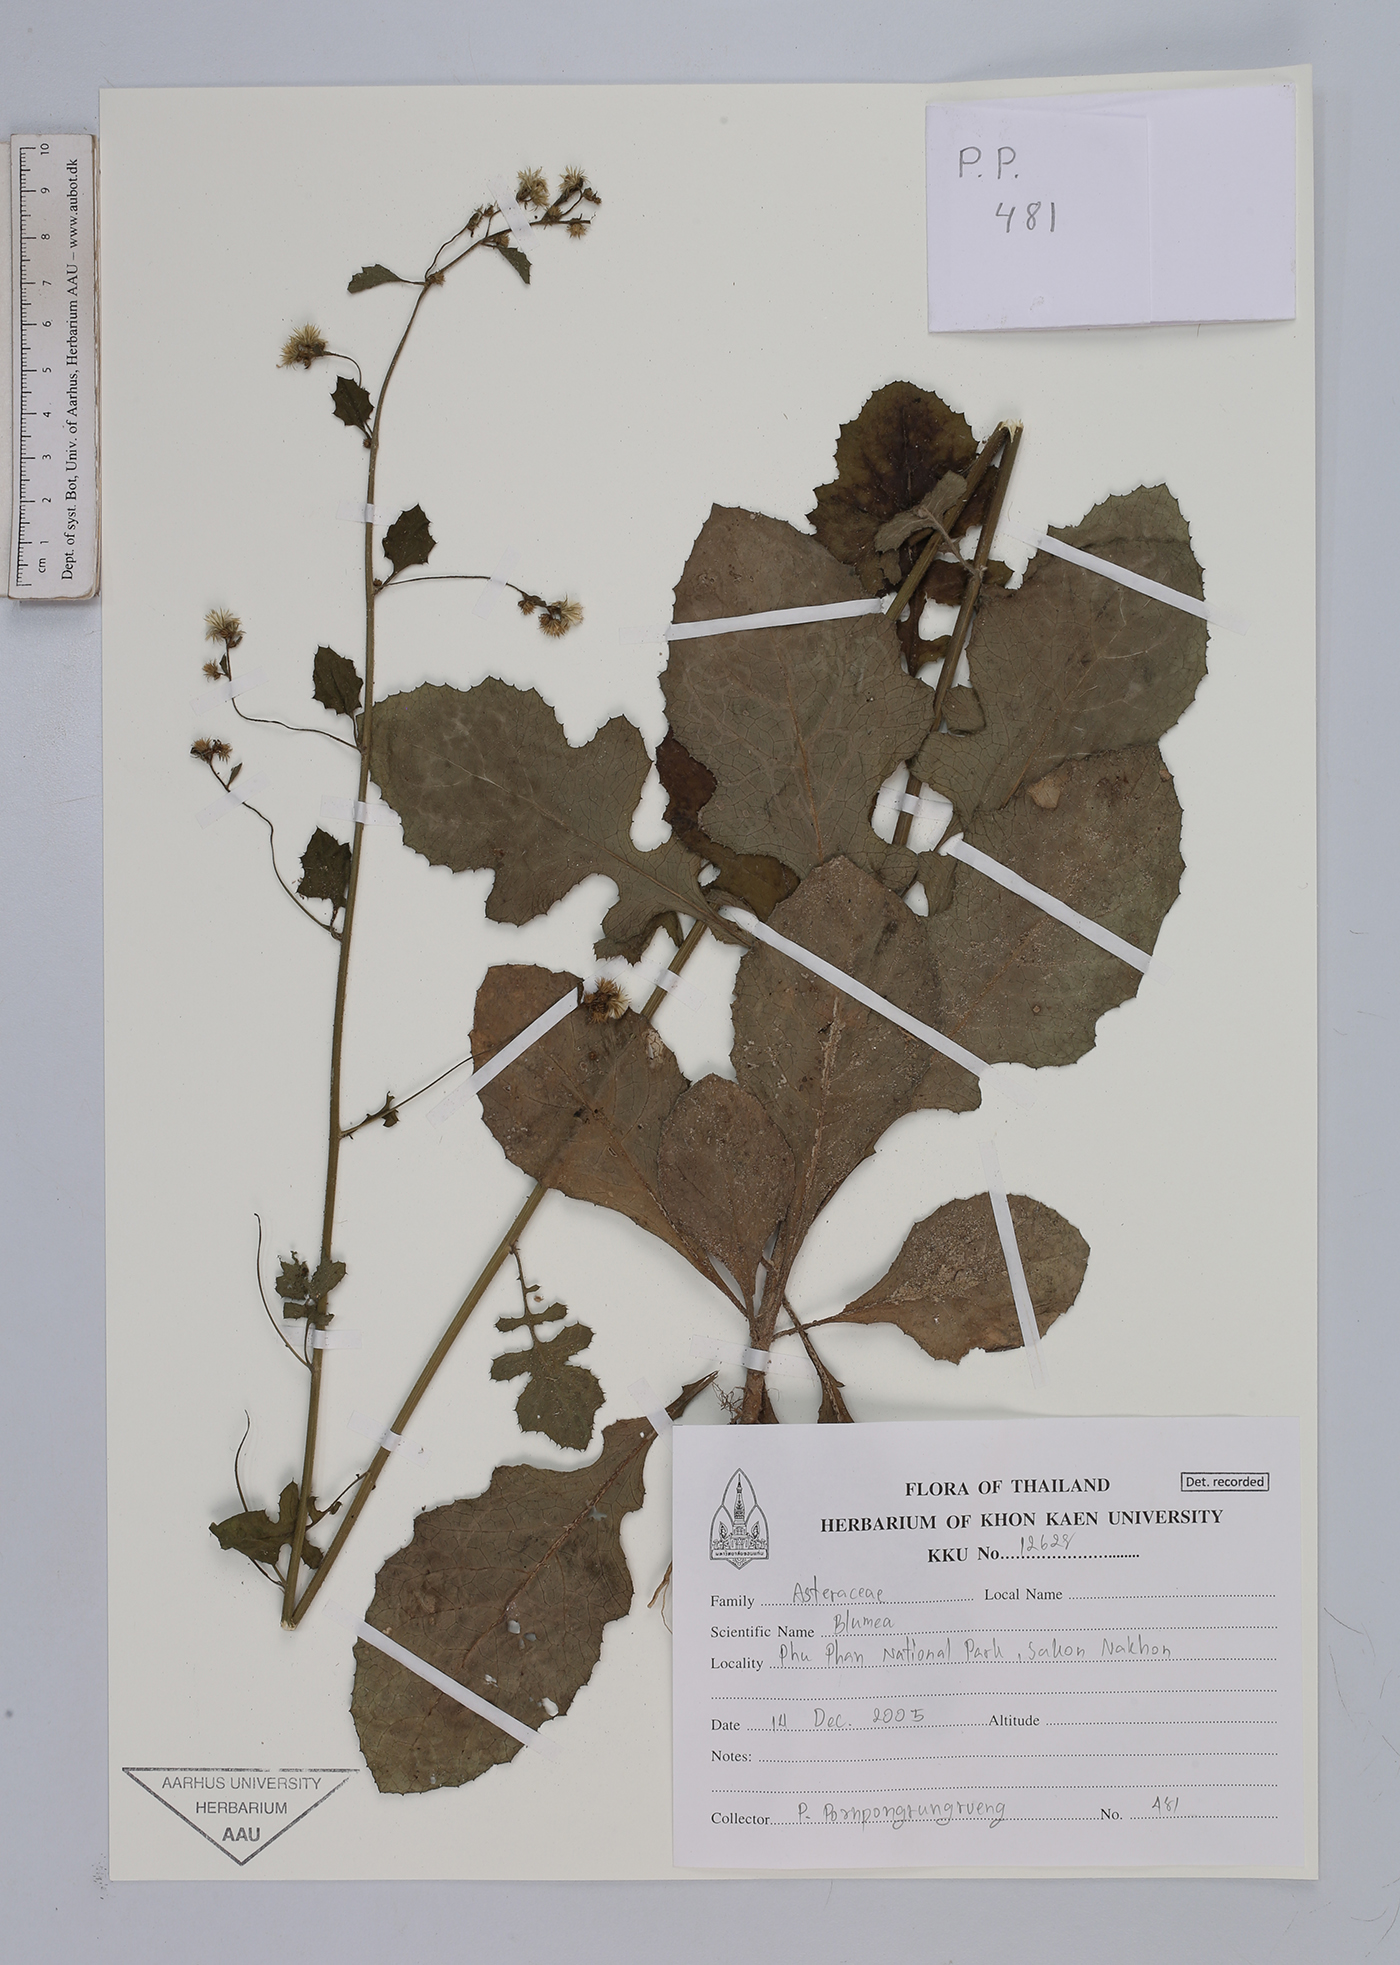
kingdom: Plantae
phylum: Tracheophyta
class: Magnoliopsida
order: Asterales
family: Asteraceae
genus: Blumea
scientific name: Blumea
